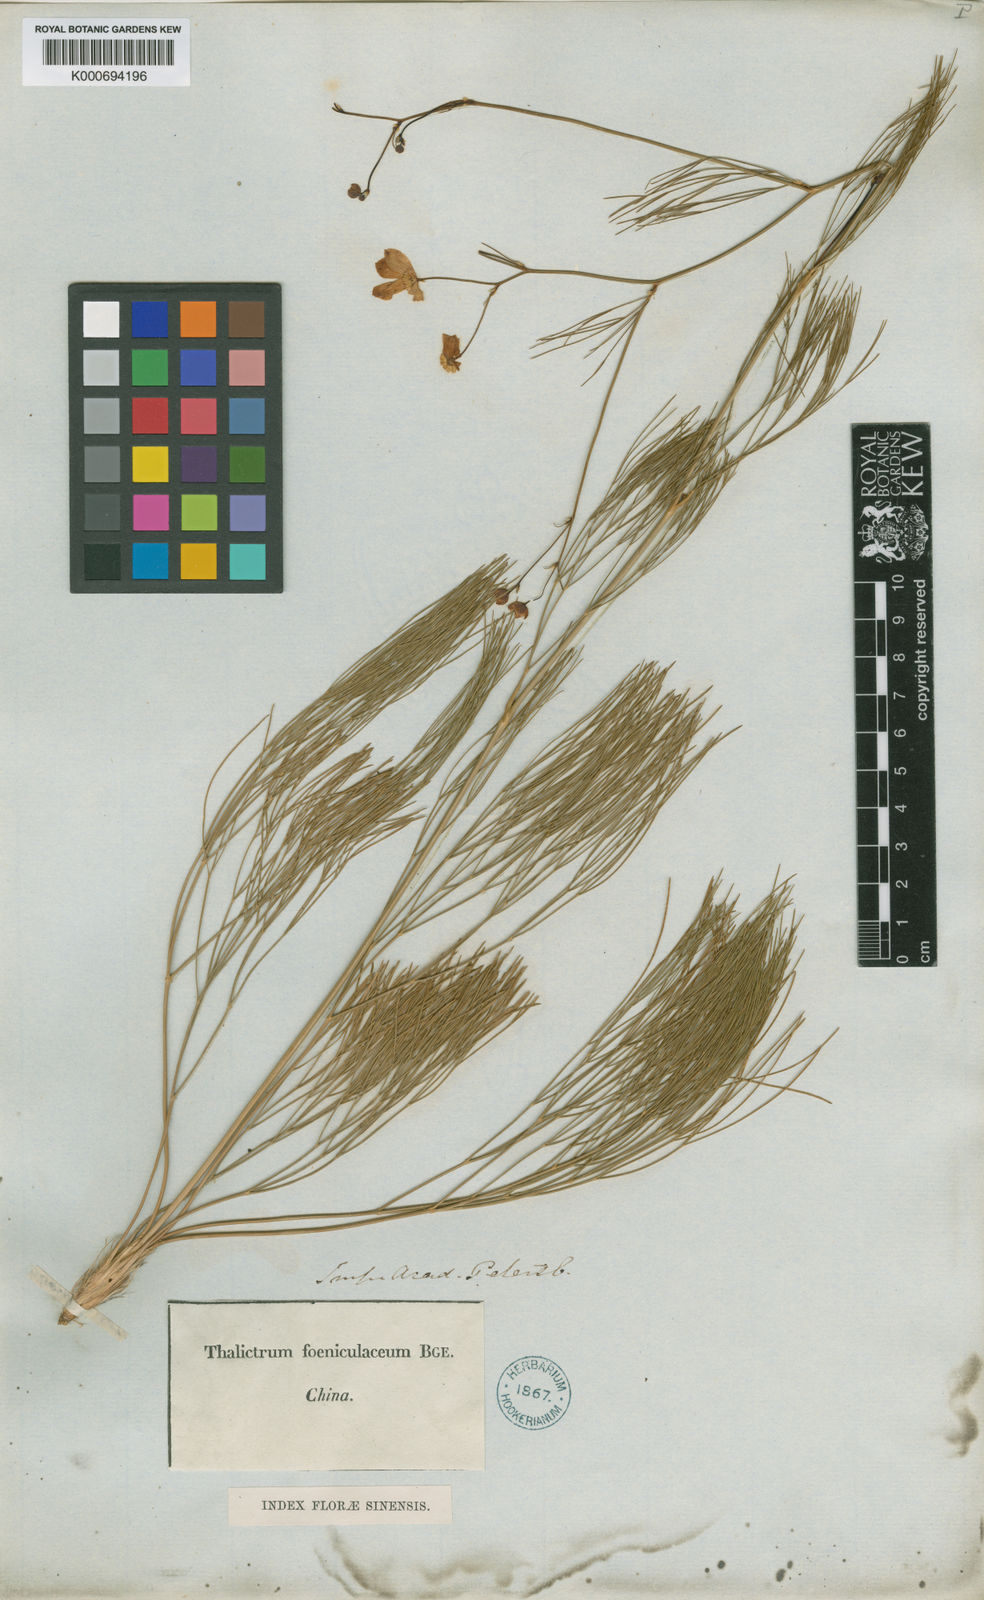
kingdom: Plantae
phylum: Tracheophyta
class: Magnoliopsida
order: Ranunculales
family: Ranunculaceae
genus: Thalictrum
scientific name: Thalictrum foeniculaceum
